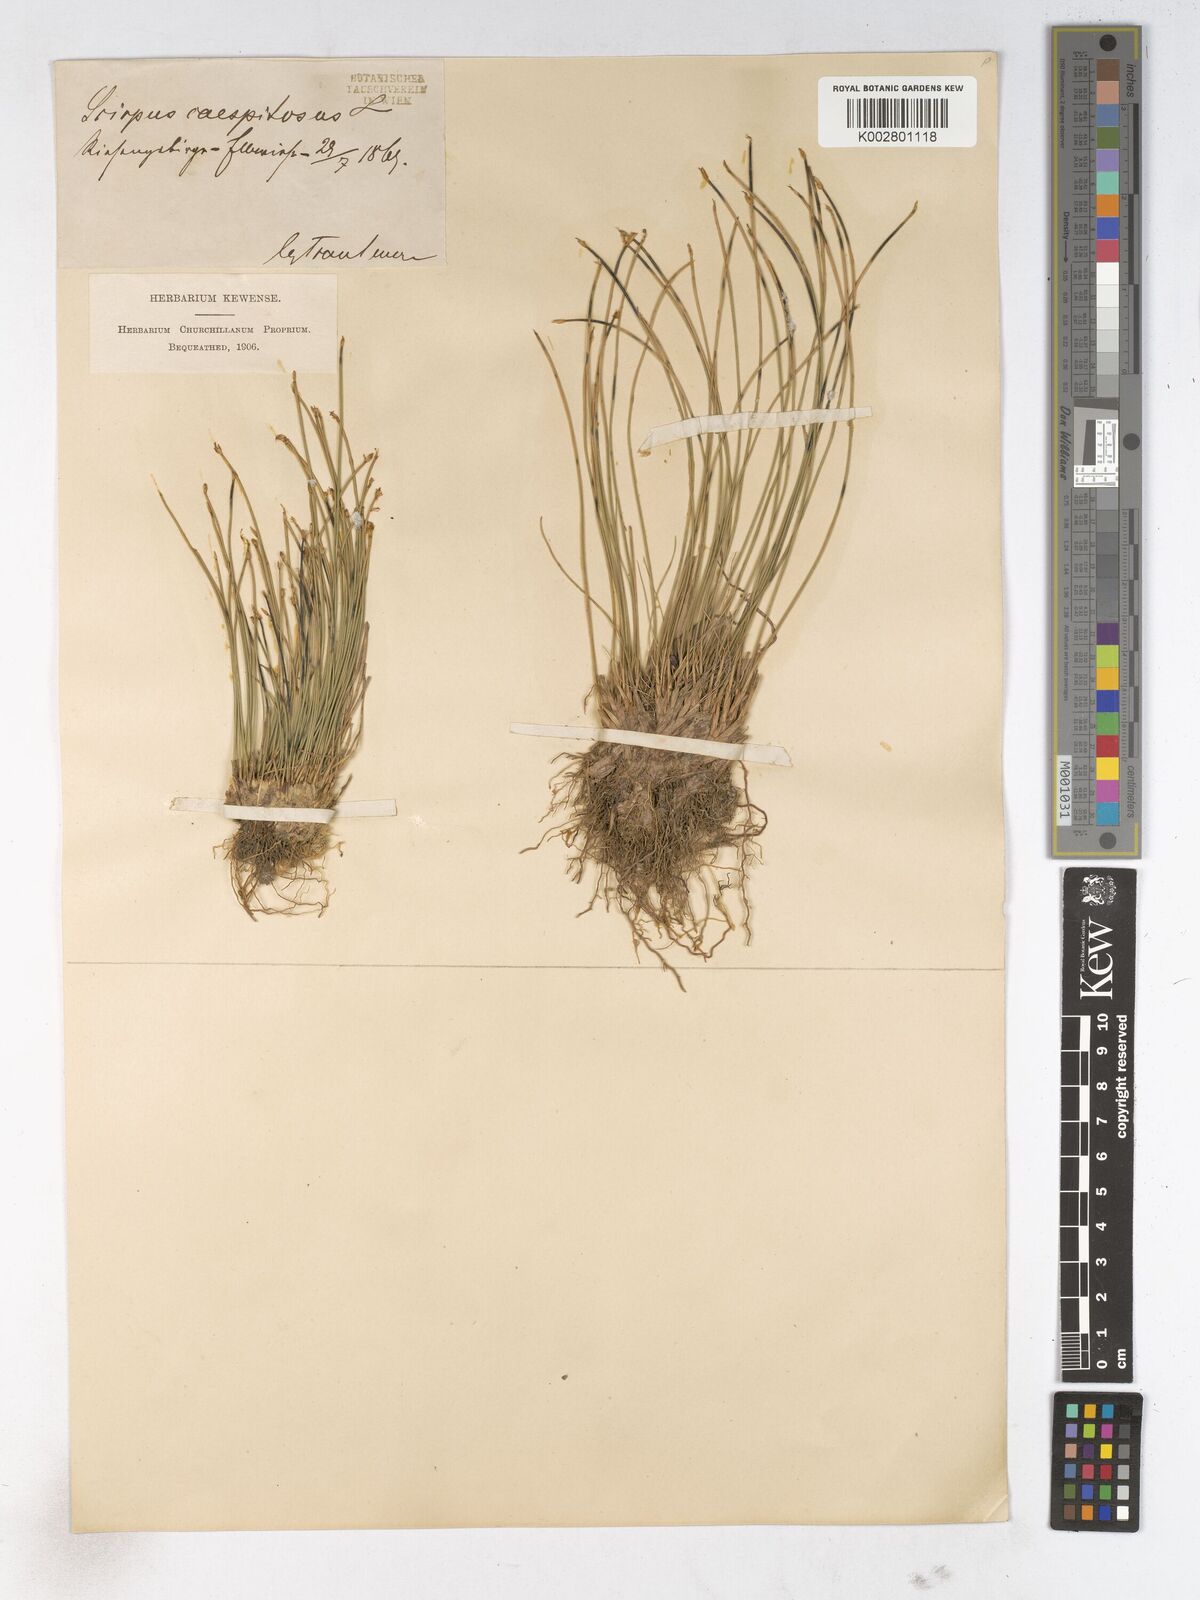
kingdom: Plantae
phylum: Tracheophyta
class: Liliopsida
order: Poales
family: Cyperaceae
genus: Trichophorum
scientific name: Trichophorum cespitosum
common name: Cespitose bulrush
